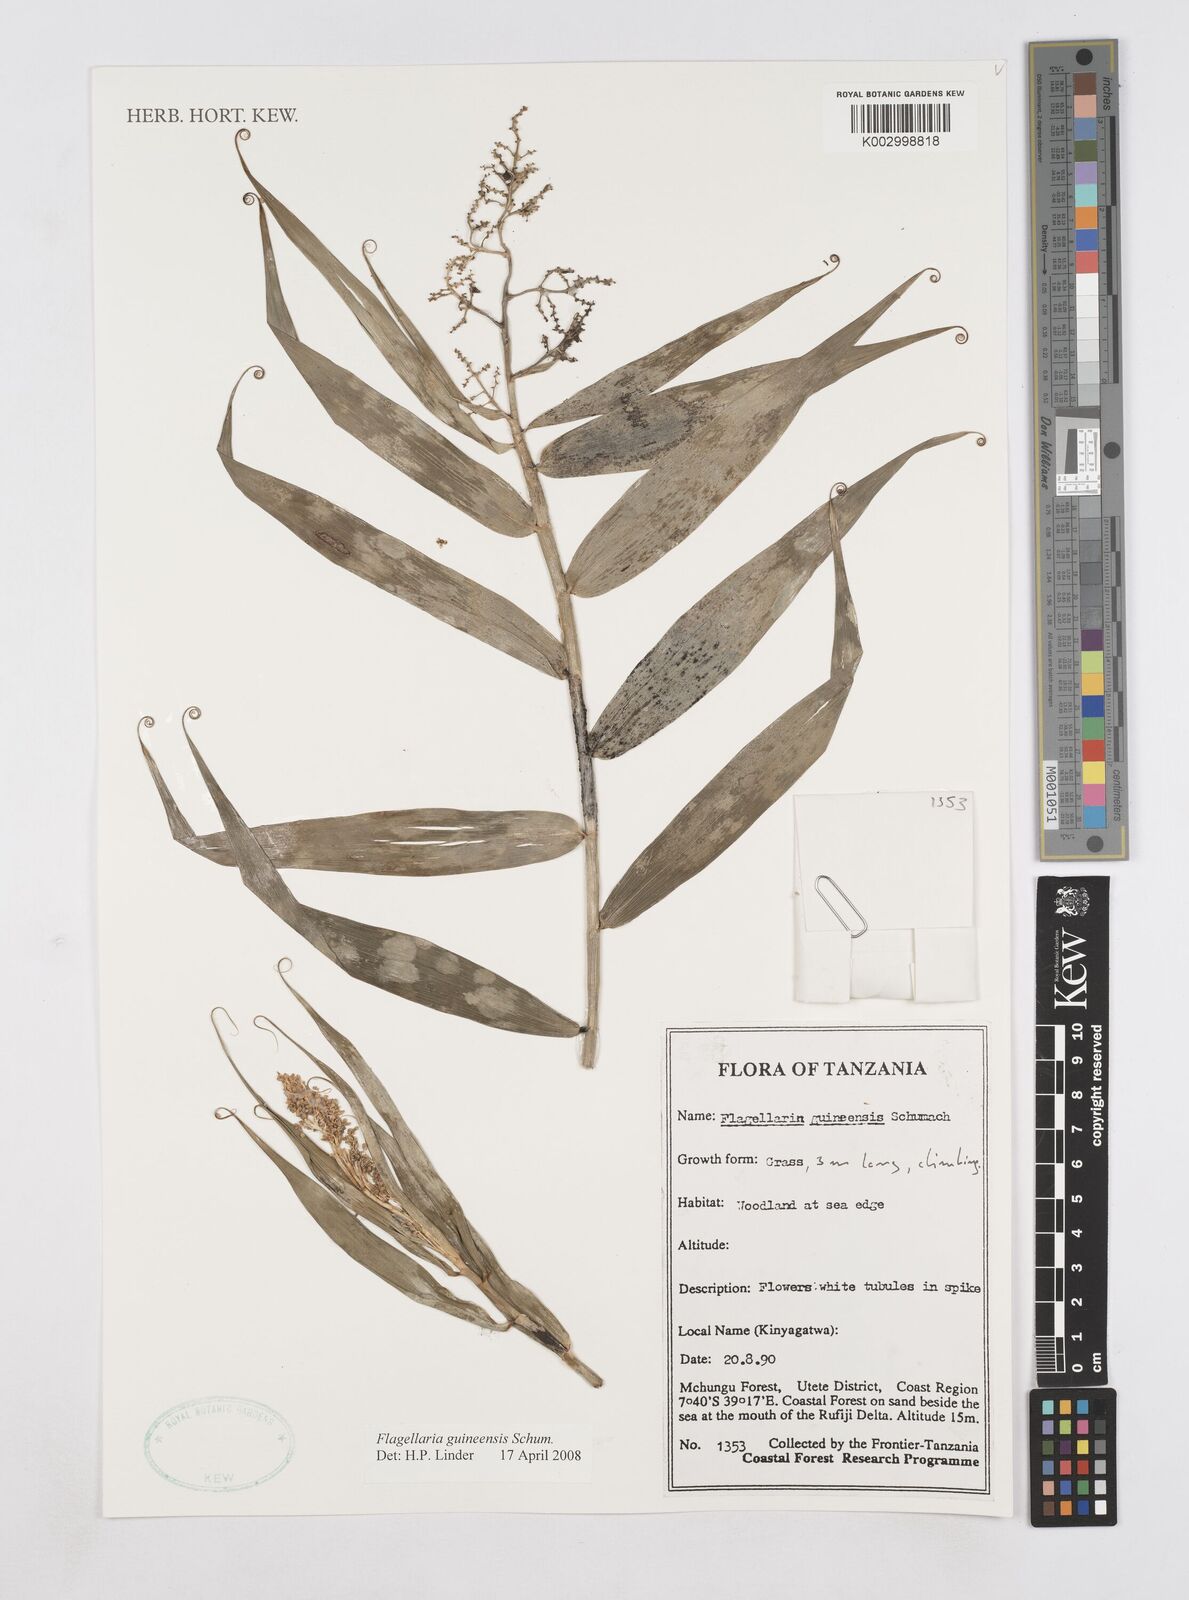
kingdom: Plantae
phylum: Tracheophyta
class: Liliopsida
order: Poales
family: Flagellariaceae
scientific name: Flagellariaceae
